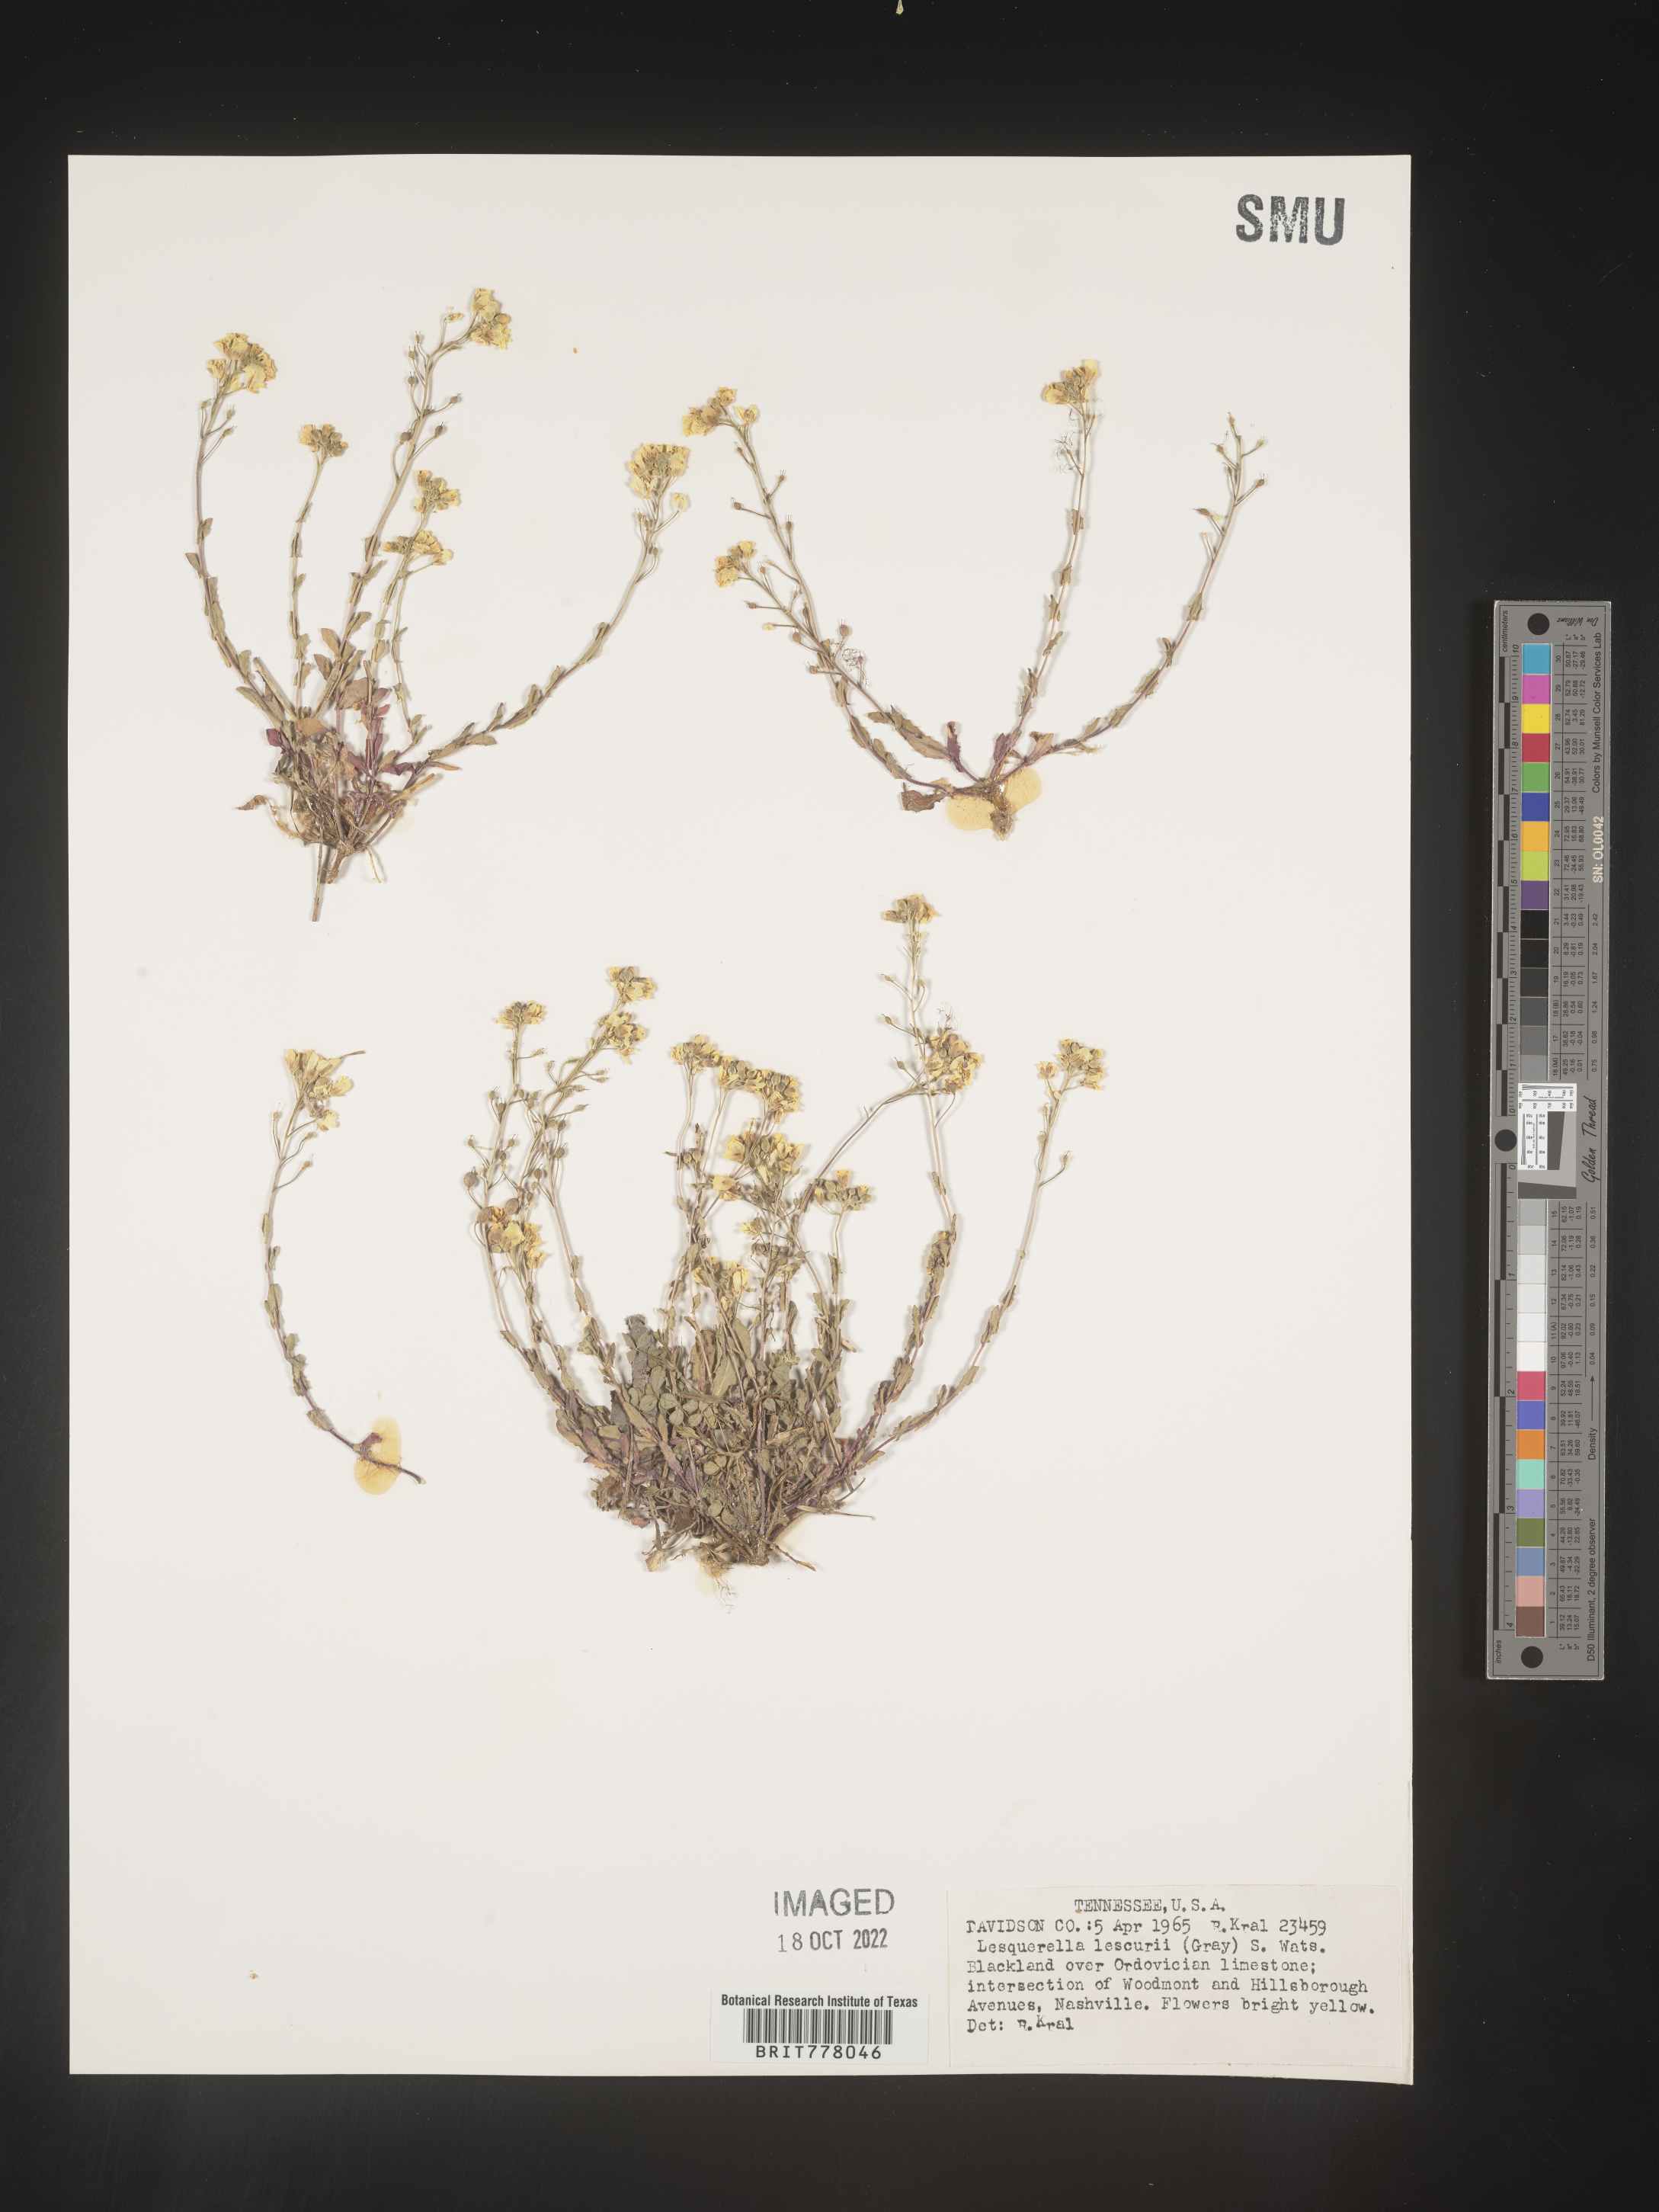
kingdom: Chromista
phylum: Cercozoa
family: Psammonobiotidae
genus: Lesquerella
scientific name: Lesquerella
